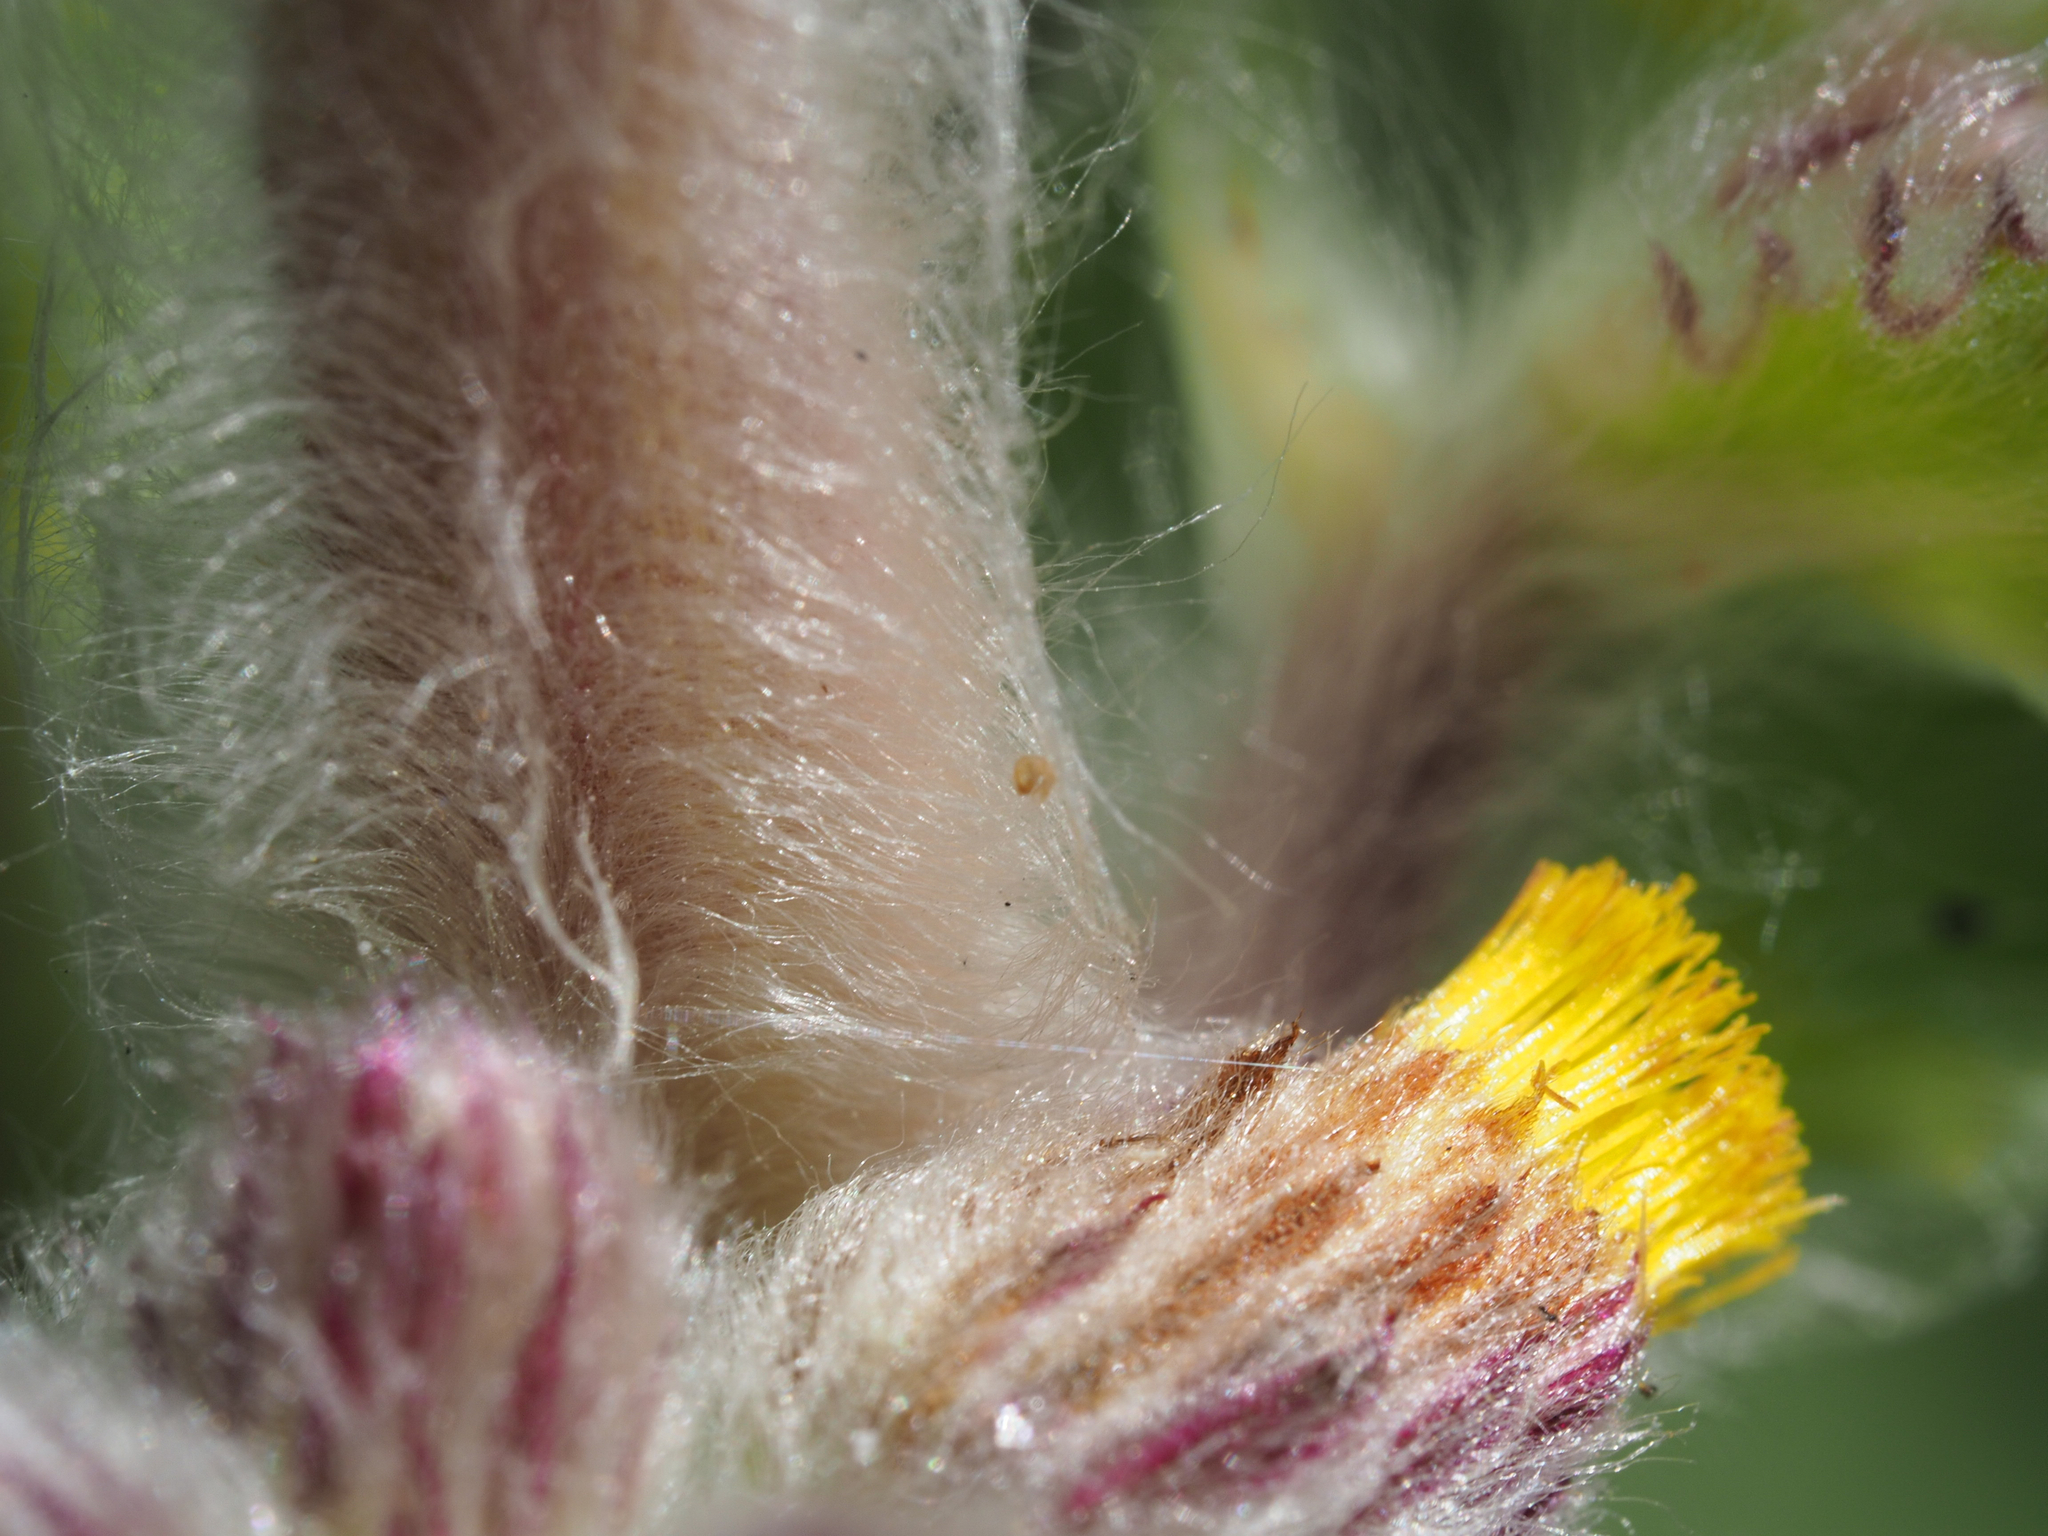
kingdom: Plantae
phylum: Tracheophyta
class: Magnoliopsida
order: Asterales
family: Asteraceae
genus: Blumea
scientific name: Blumea hieraciifolia
